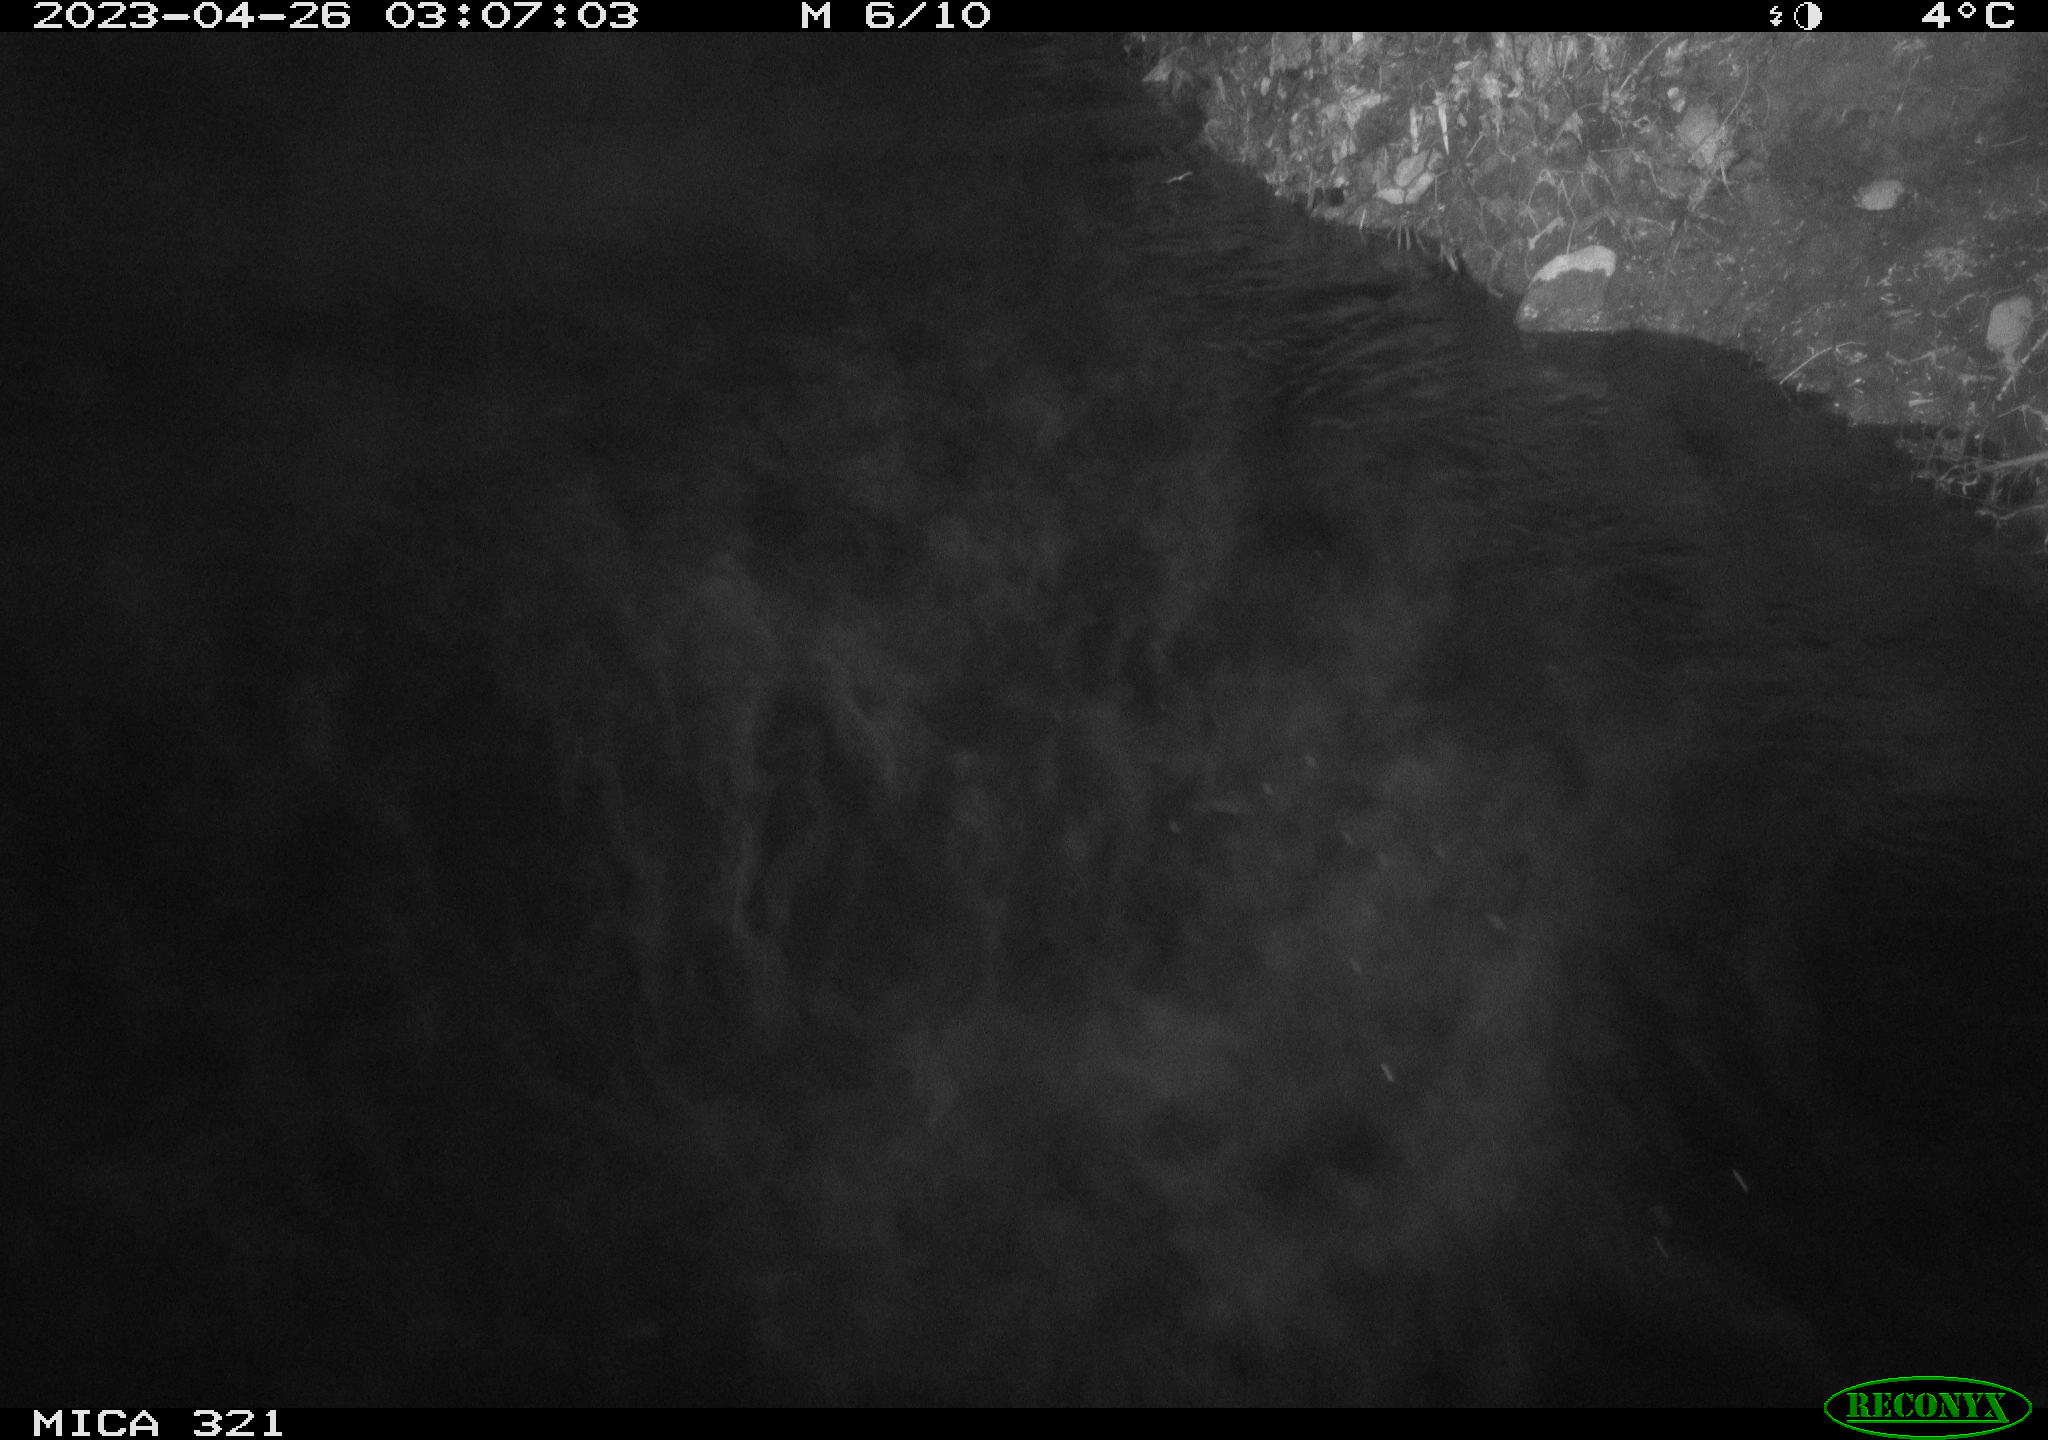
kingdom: Animalia
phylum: Chordata
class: Aves
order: Anseriformes
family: Anatidae
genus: Anas
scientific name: Anas
